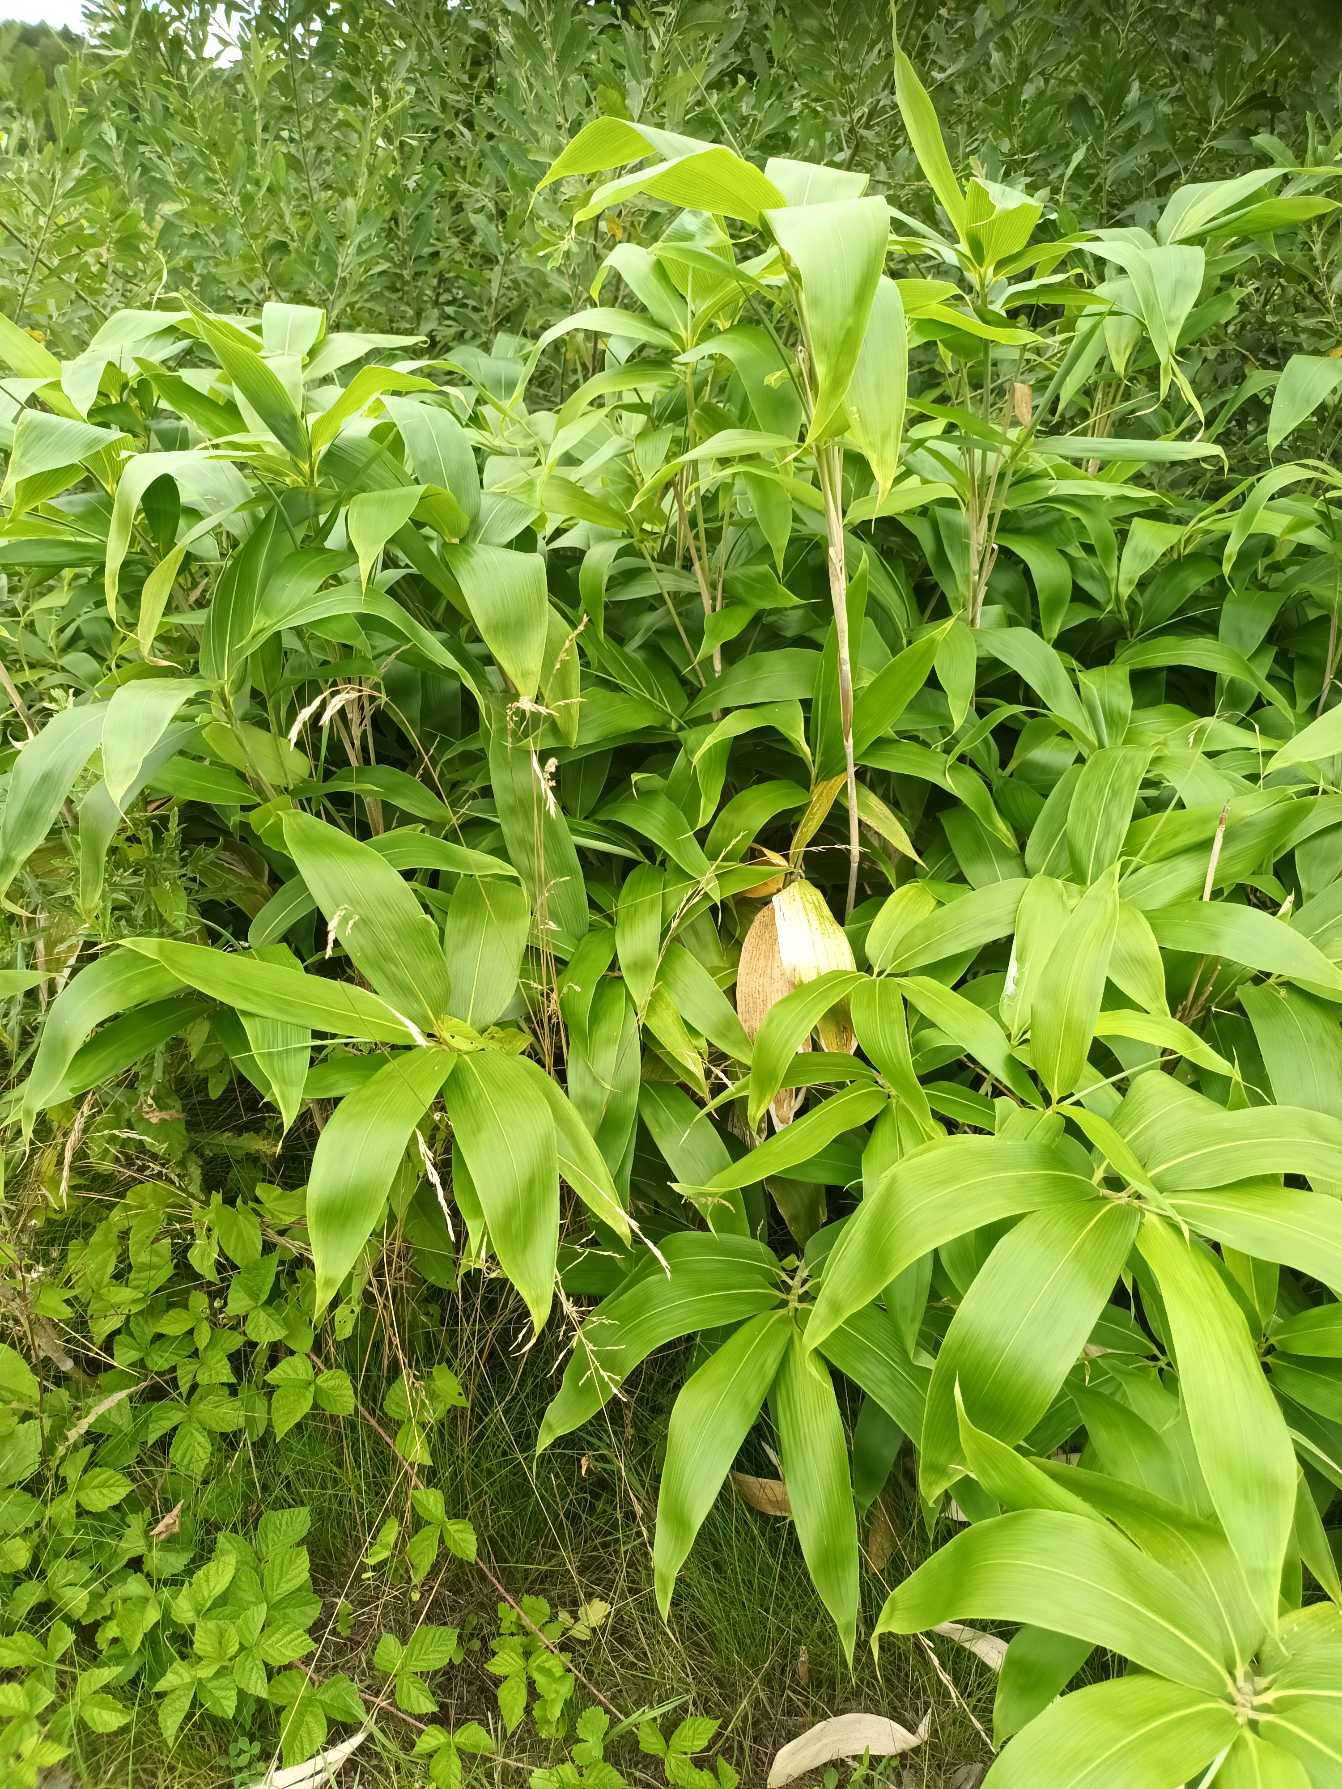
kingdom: Plantae
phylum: Tracheophyta
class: Liliopsida
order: Poales
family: Poaceae
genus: Sasa
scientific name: Sasa palmata
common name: Palmebladet bambus
